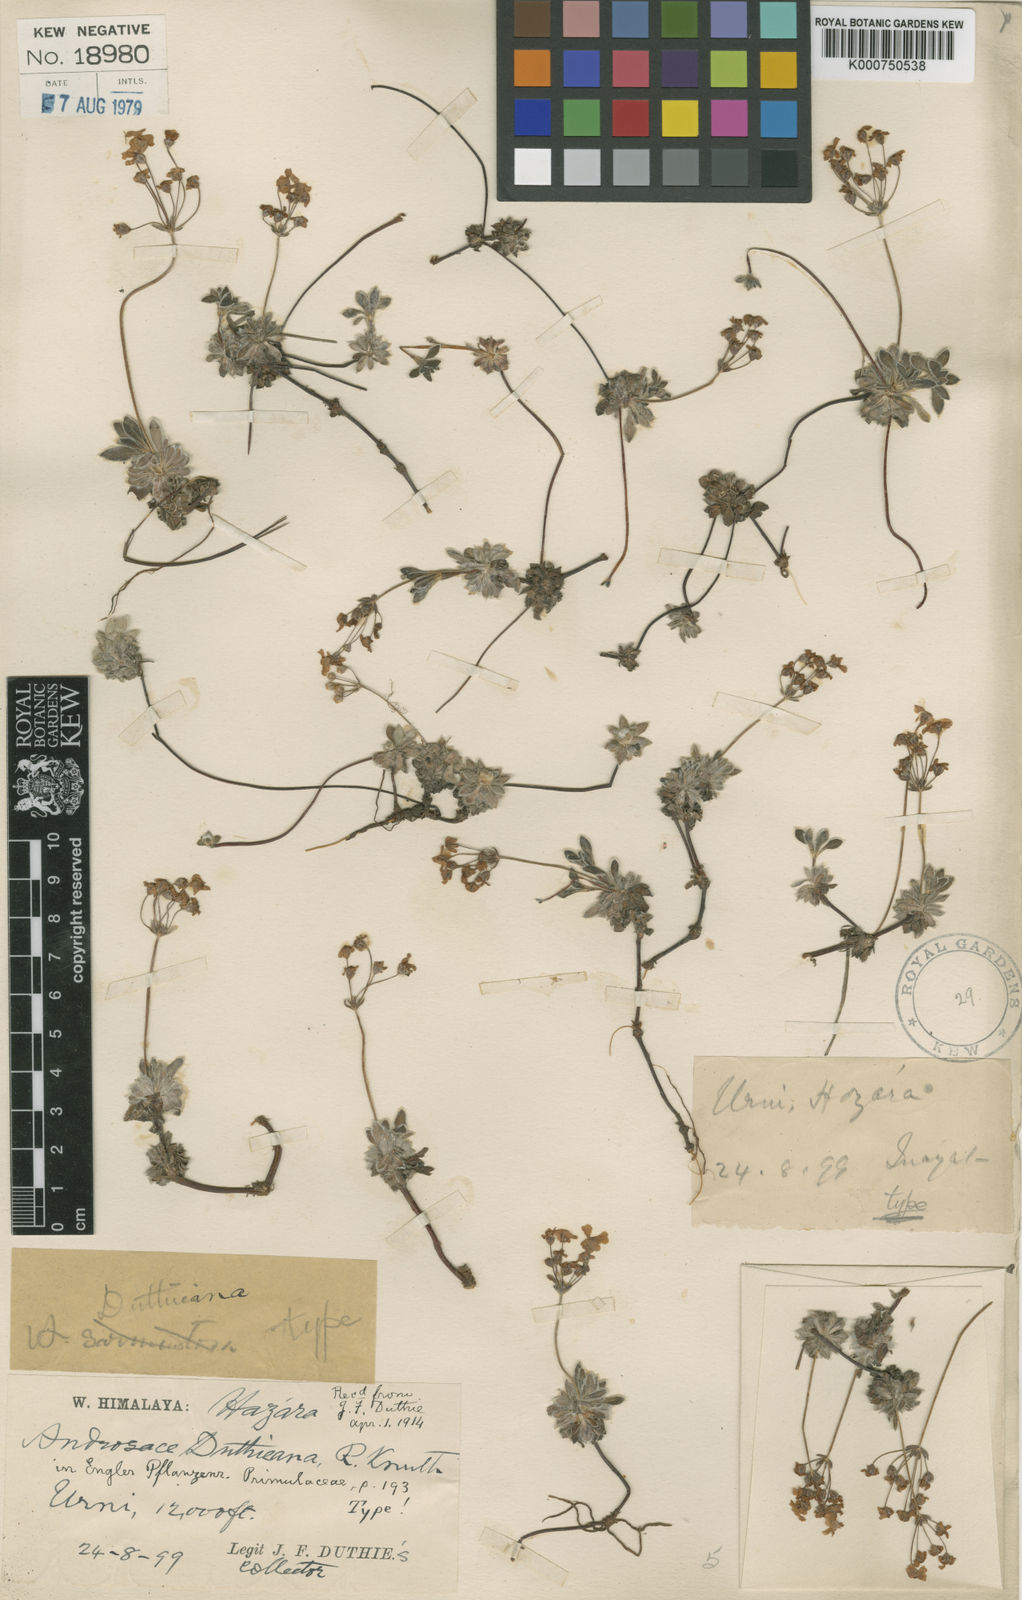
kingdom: Plantae
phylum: Tracheophyta
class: Magnoliopsida
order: Ericales
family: Primulaceae
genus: Androsace
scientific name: Androsace duthieana
